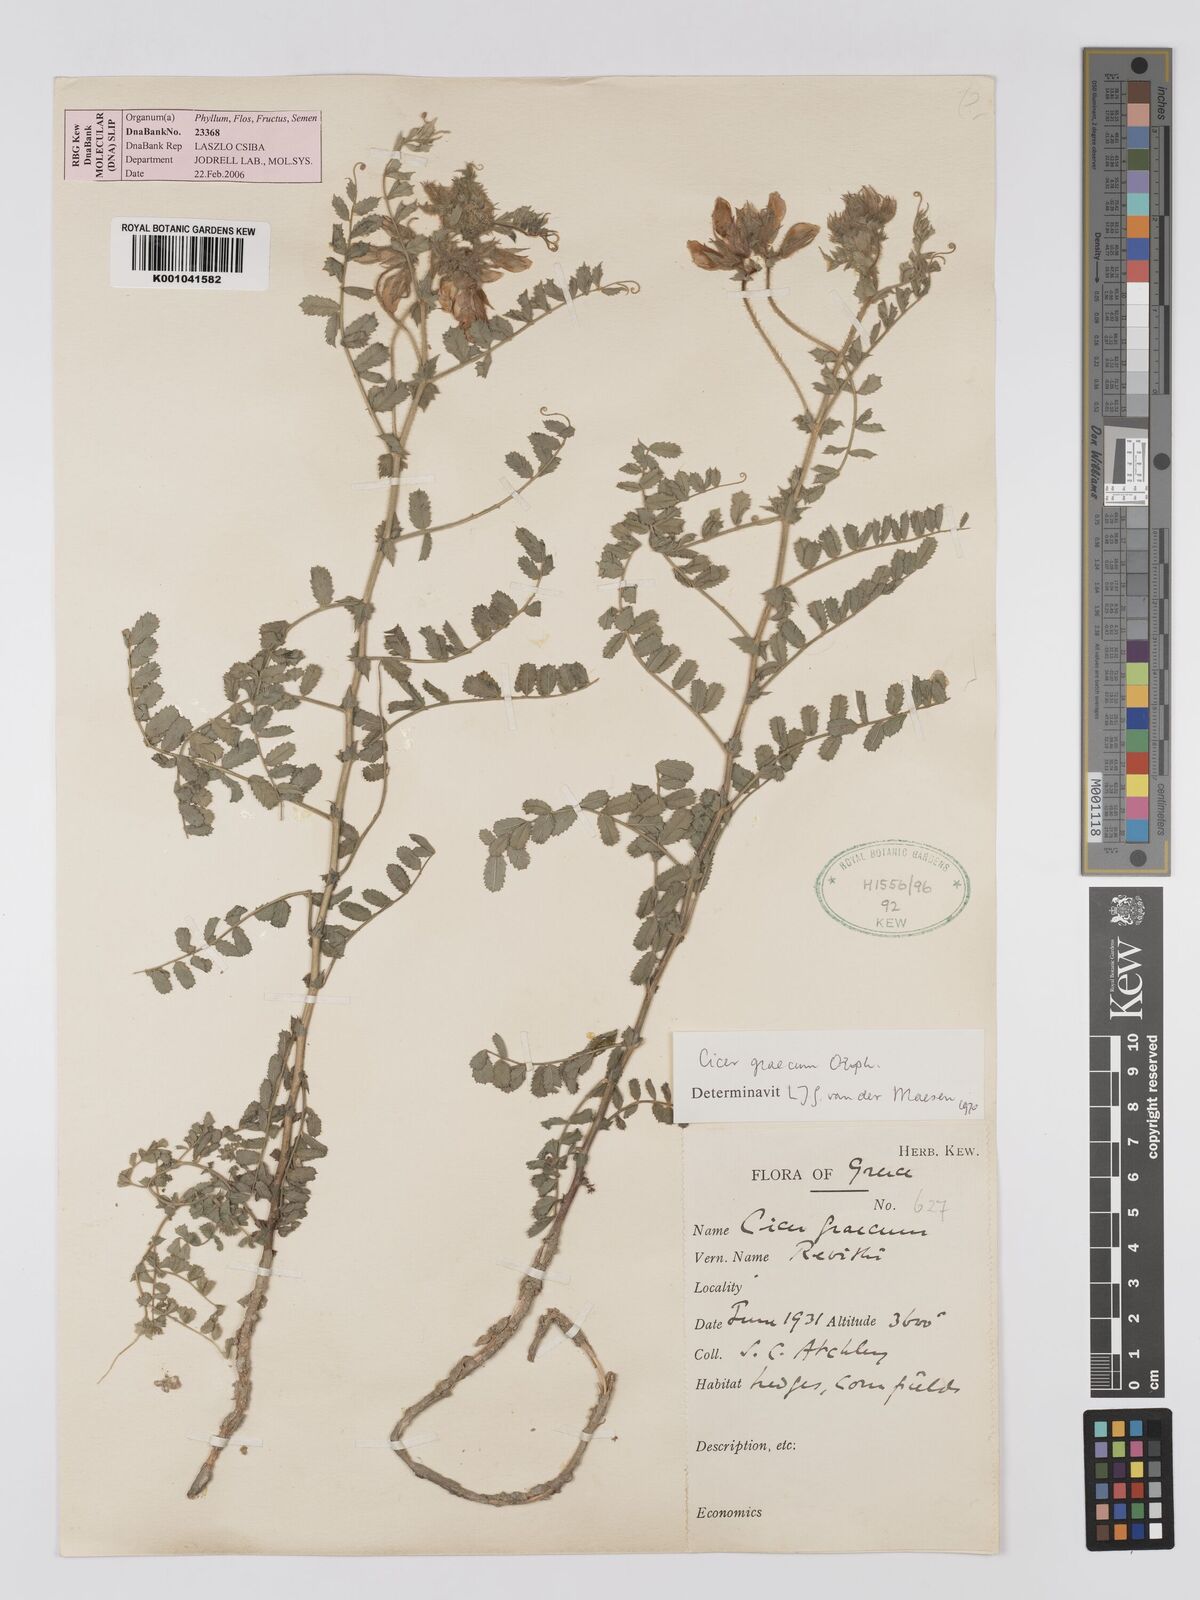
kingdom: Plantae
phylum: Tracheophyta
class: Magnoliopsida
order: Fabales
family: Fabaceae
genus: Cicer
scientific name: Cicer graecum
